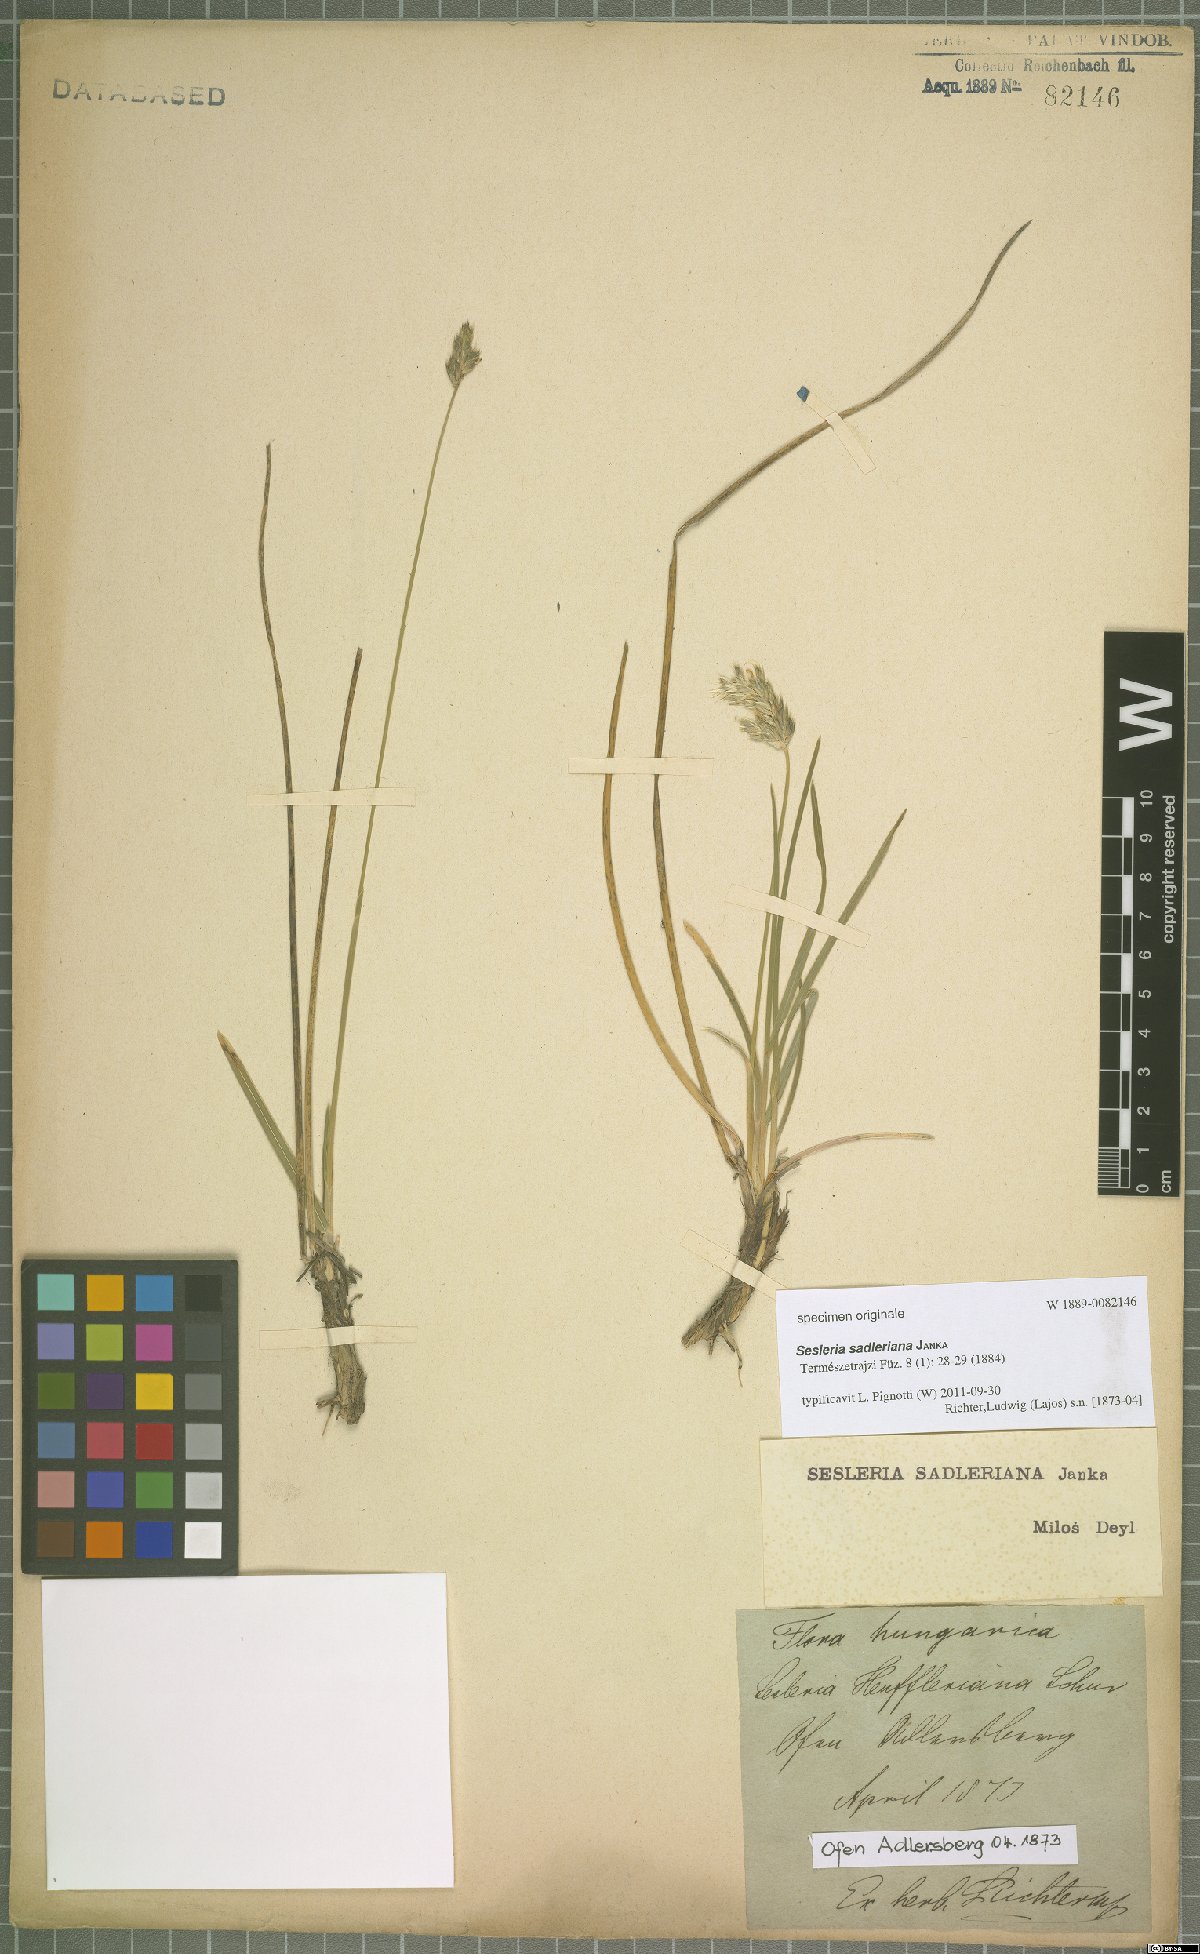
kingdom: Plantae
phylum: Tracheophyta
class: Liliopsida
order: Poales
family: Poaceae
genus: Sesleria
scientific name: Sesleria sadleriana
